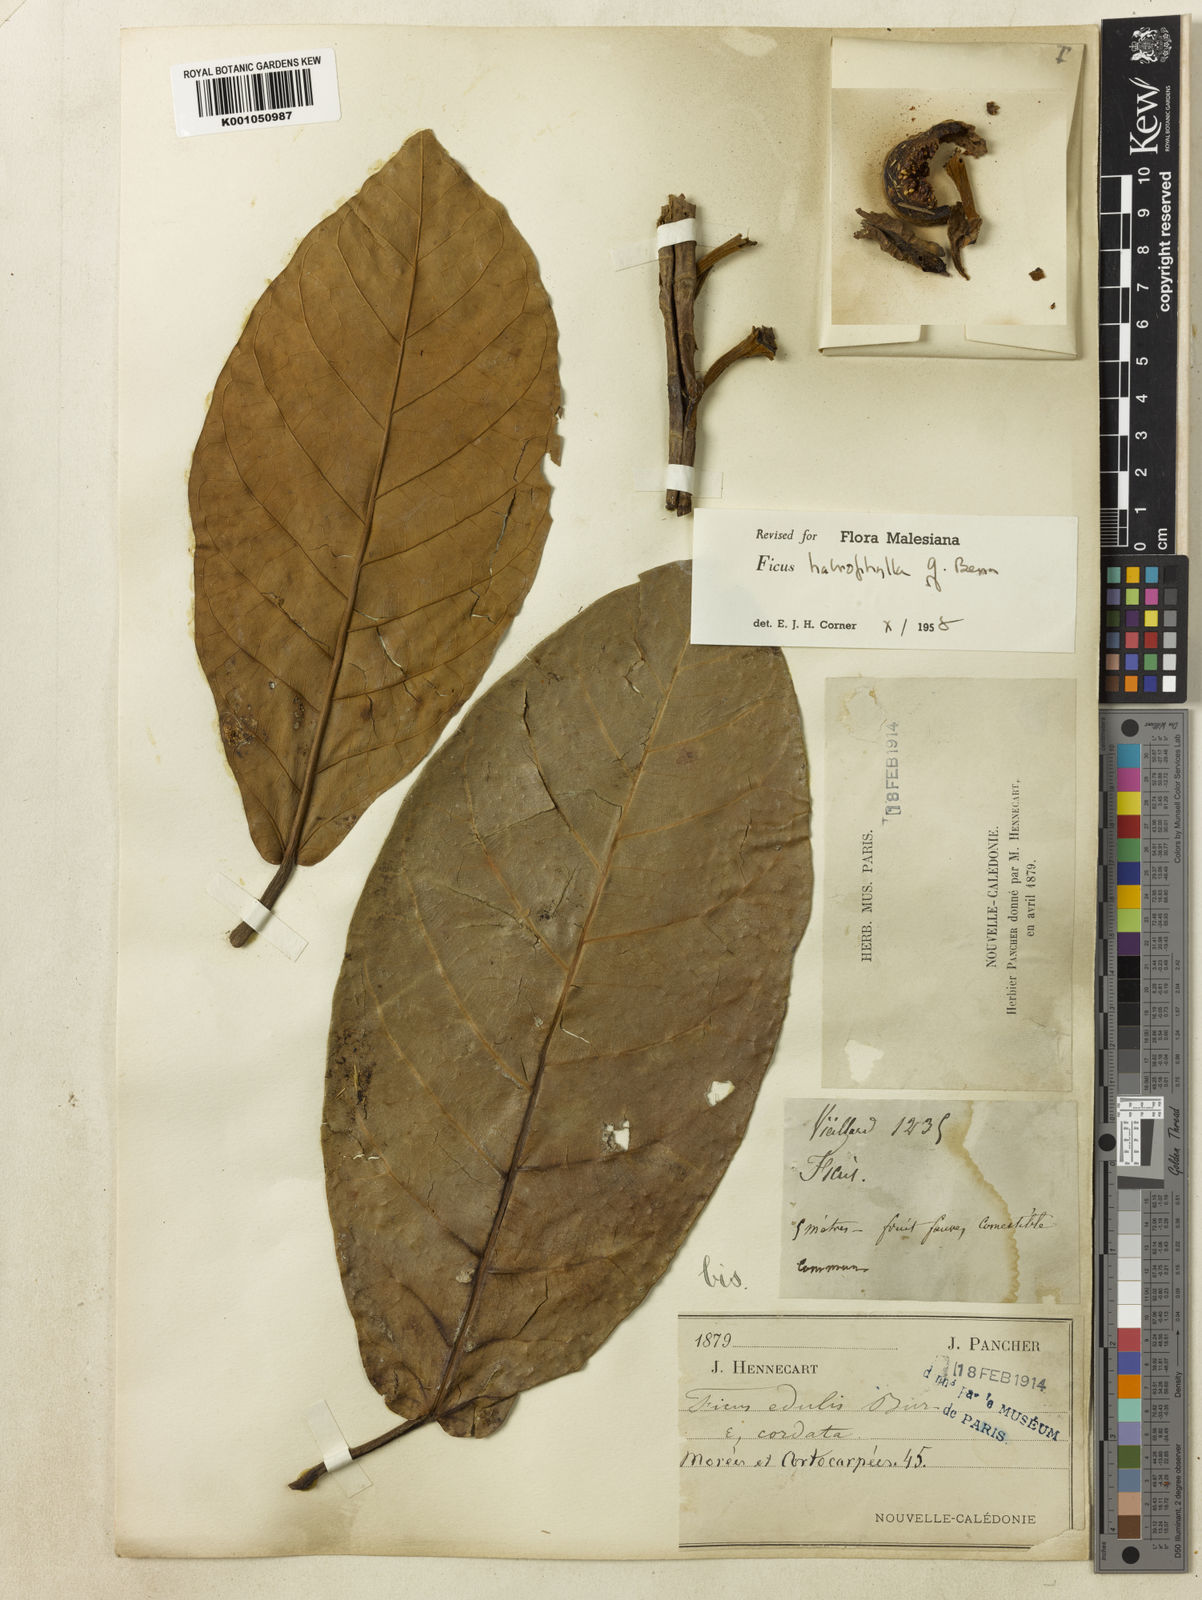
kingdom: Plantae
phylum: Tracheophyta
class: Magnoliopsida
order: Rosales
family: Moraceae
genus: Ficus
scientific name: Ficus
